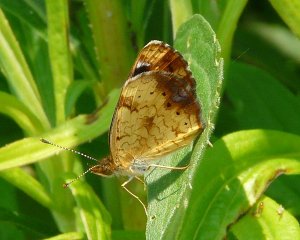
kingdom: Animalia
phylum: Arthropoda
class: Insecta
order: Lepidoptera
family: Nymphalidae
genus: Phyciodes
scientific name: Phyciodes tharos
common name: Northern Crescent
